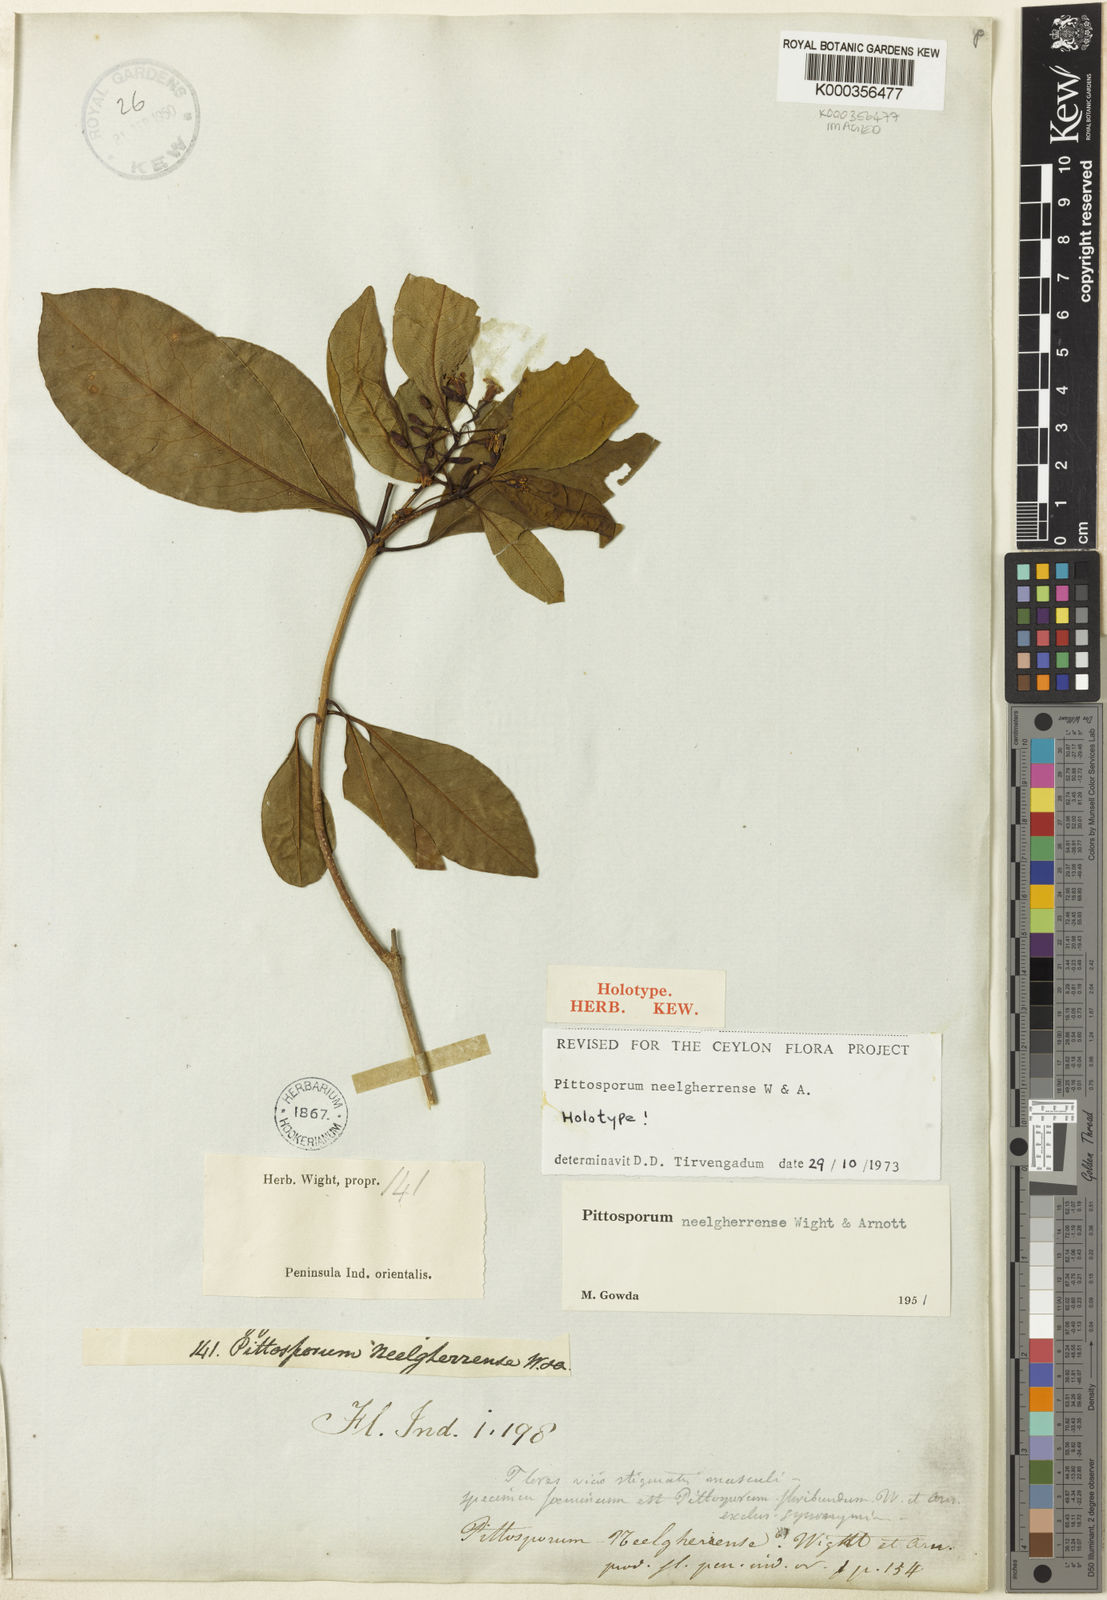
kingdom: Plantae
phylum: Tracheophyta
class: Magnoliopsida
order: Apiales
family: Pittosporaceae
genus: Pittosporum
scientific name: Pittosporum neelgherrense
